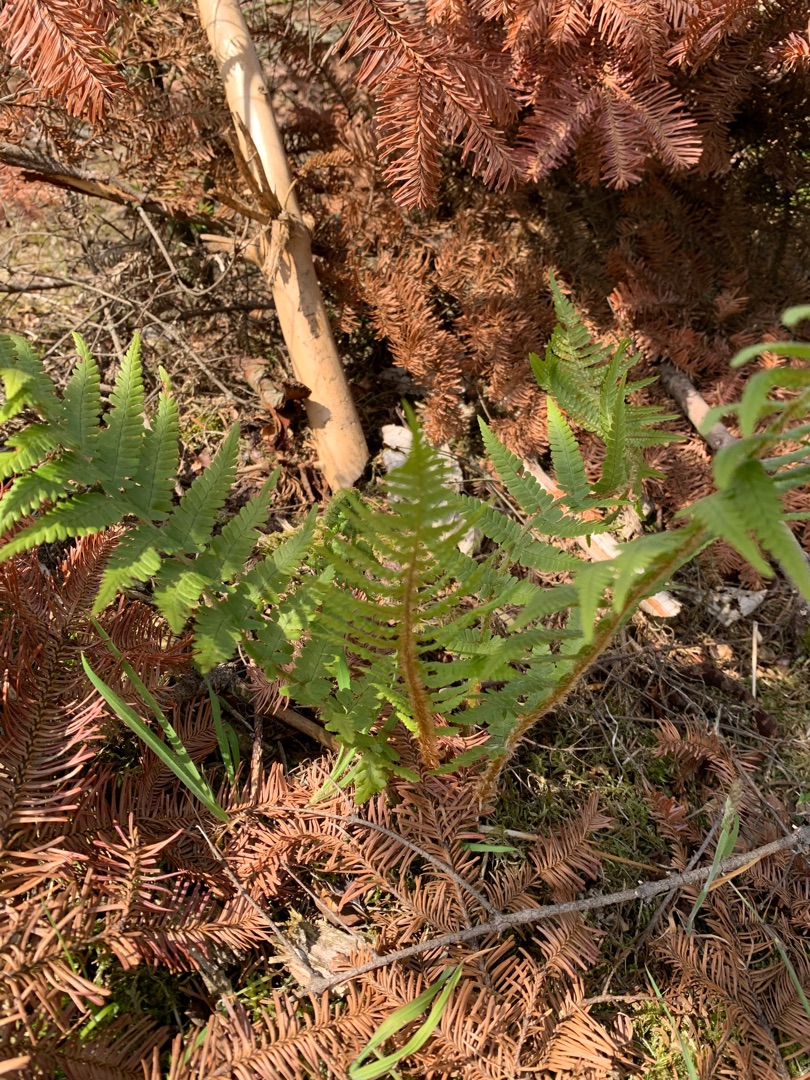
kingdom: Plantae
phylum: Tracheophyta
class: Polypodiopsida
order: Polypodiales
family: Dryopteridaceae
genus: Dryopteris
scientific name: Dryopteris filix-mas
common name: Almindelig mangeløv
